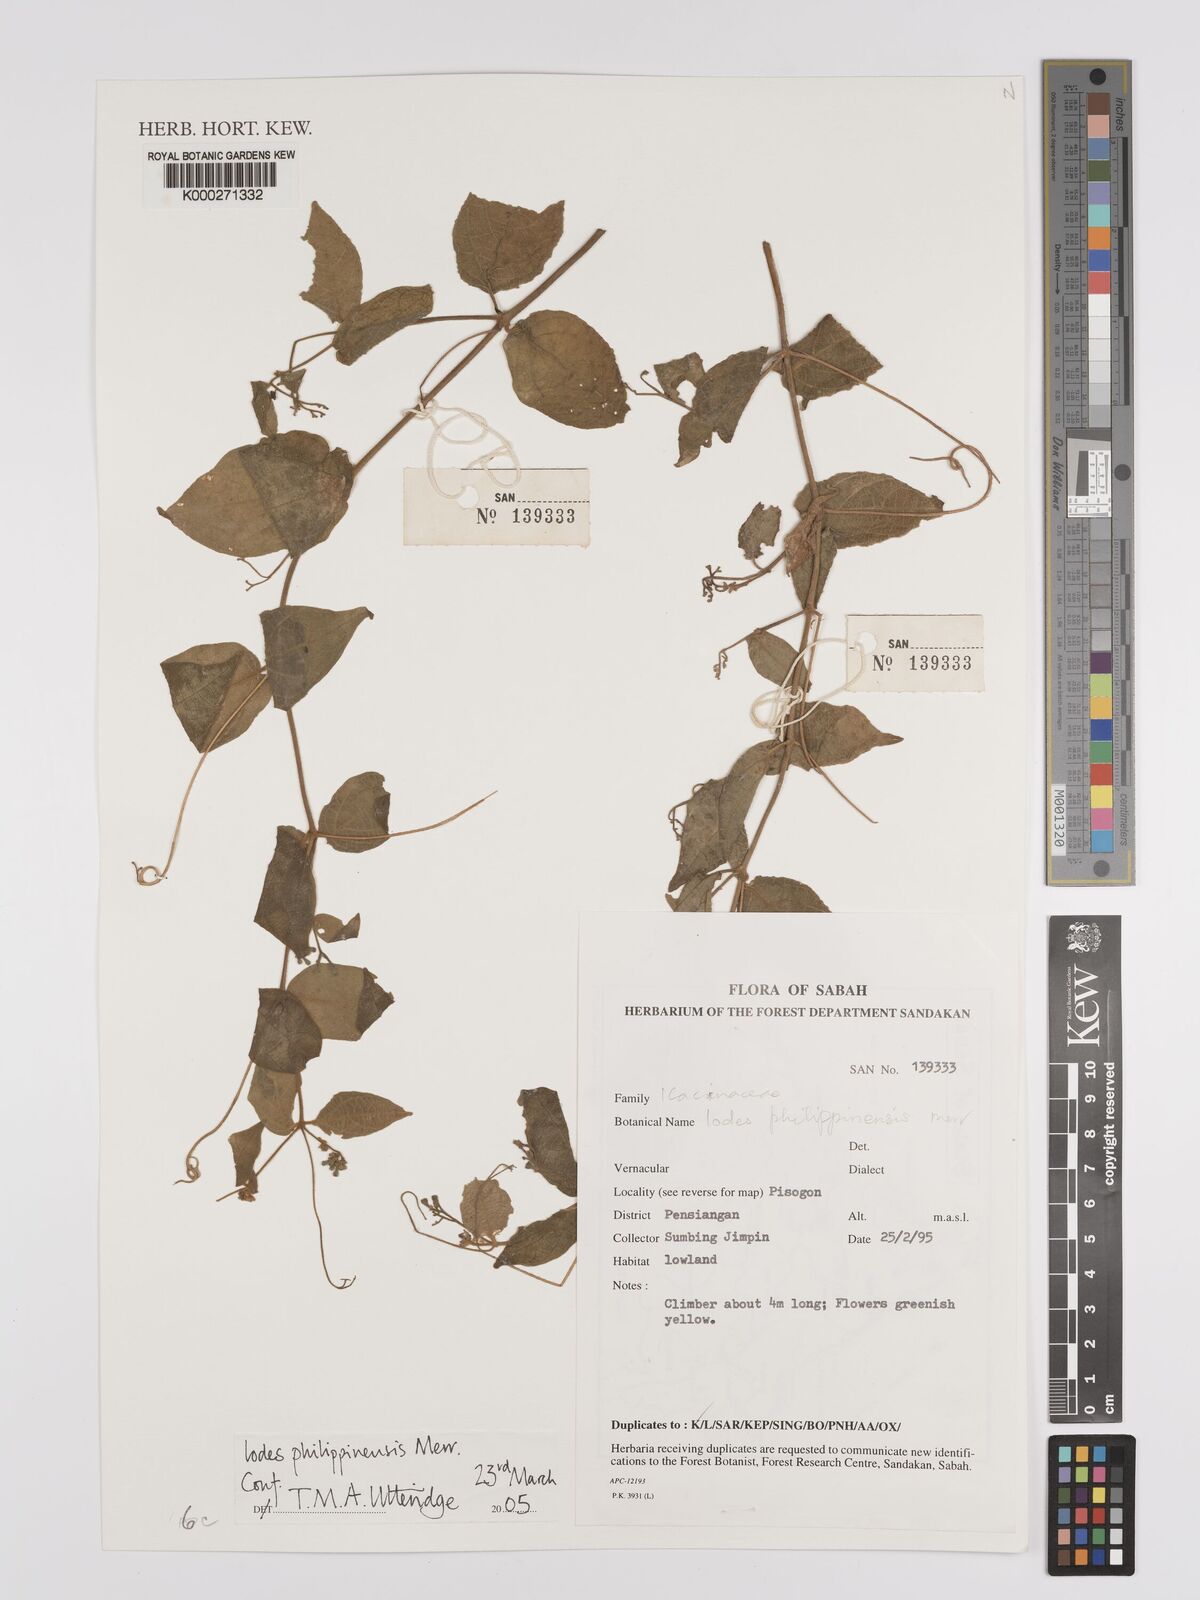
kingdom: Plantae
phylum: Tracheophyta
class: Magnoliopsida
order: Icacinales
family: Icacinaceae
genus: Iodes
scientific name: Iodes philippinensis
